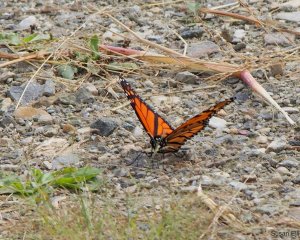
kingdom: Animalia
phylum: Arthropoda
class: Insecta
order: Lepidoptera
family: Nymphalidae
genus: Danaus
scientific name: Danaus plexippus
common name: Monarch
